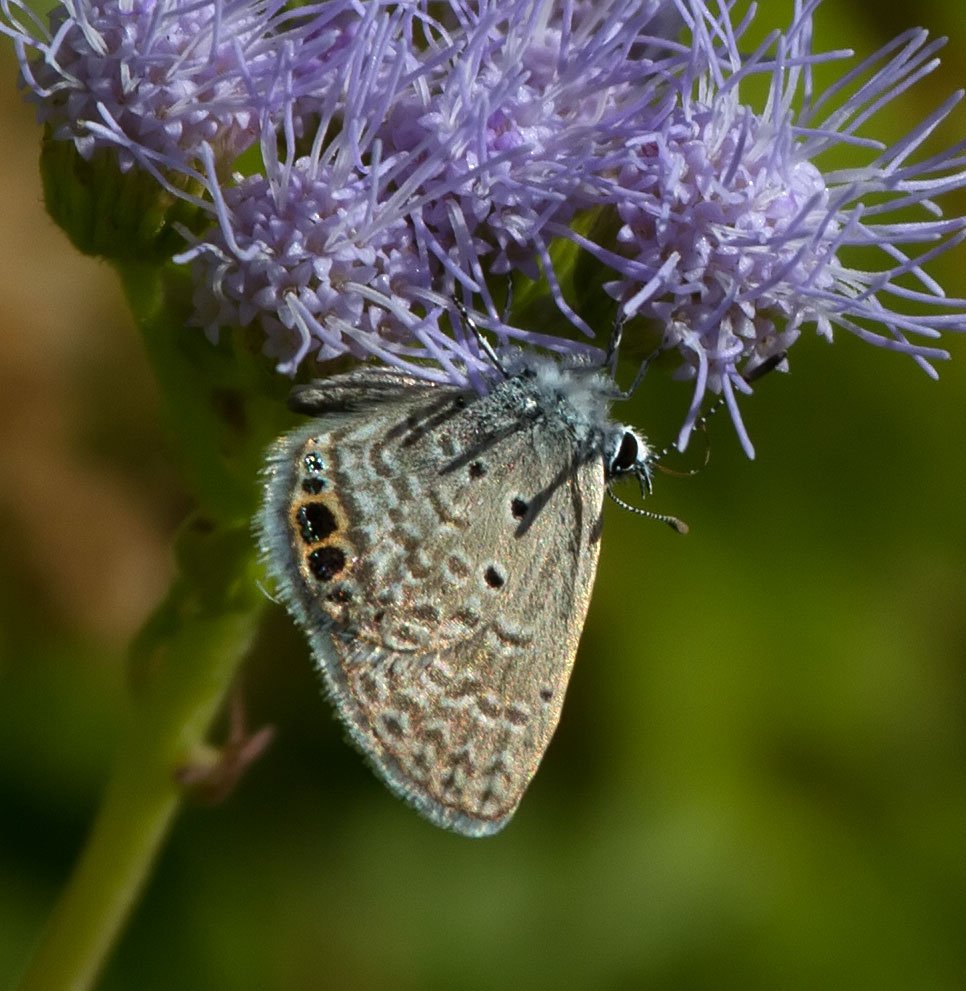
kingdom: Animalia
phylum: Arthropoda
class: Insecta
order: Lepidoptera
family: Lycaenidae
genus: Hemiargus
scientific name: Hemiargus ceraunus
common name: Ceraunus Blue
